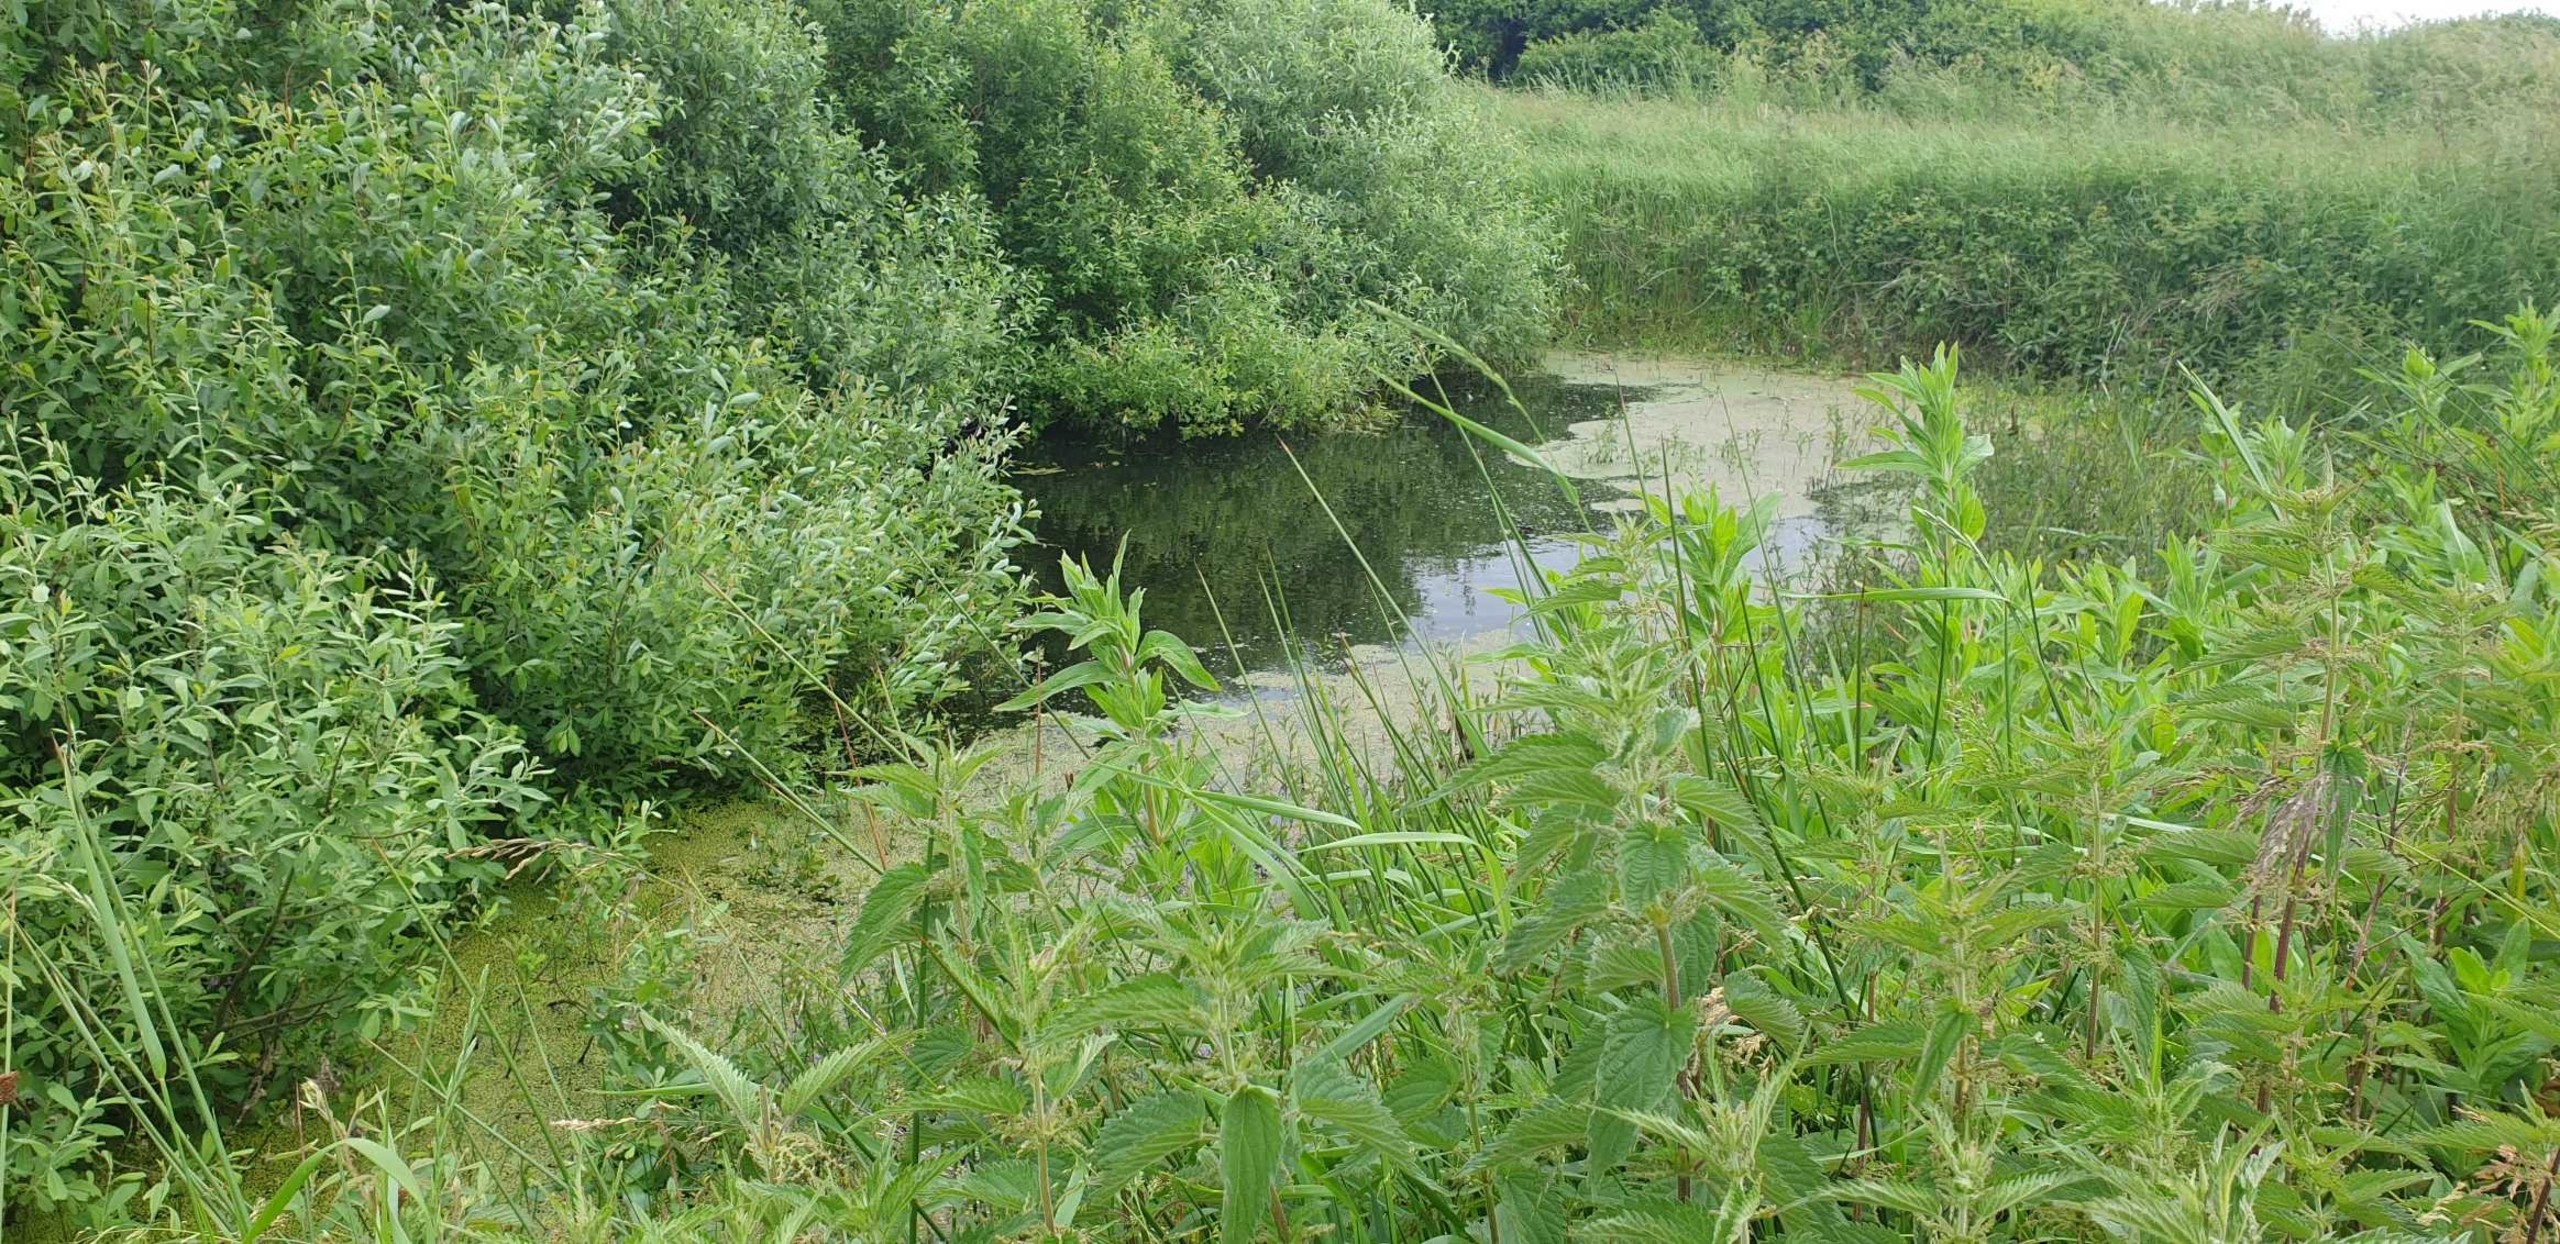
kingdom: Plantae
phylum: Tracheophyta
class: Magnoliopsida
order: Rosales
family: Urticaceae
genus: Urtica
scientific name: Urtica dioica
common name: Stor nælde
